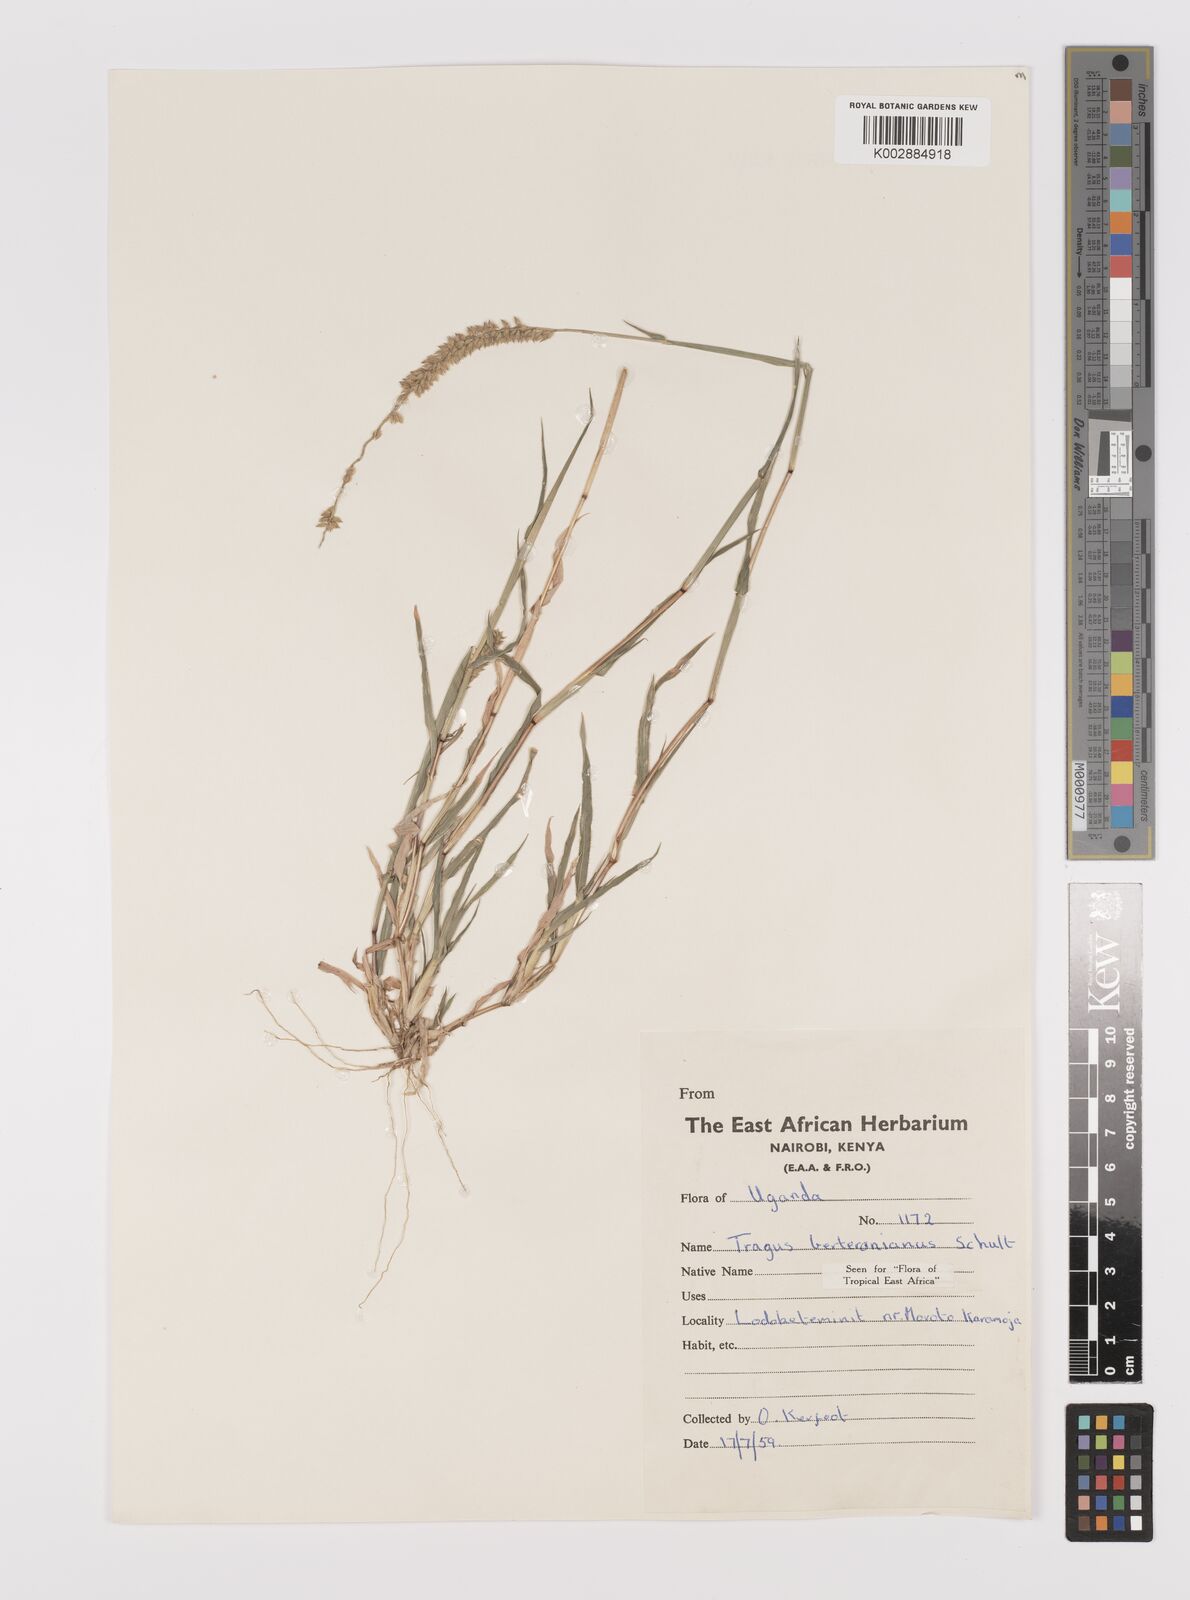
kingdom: Plantae
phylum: Tracheophyta
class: Liliopsida
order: Poales
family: Poaceae
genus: Tragus
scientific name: Tragus berteronianus
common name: African bur-grass
